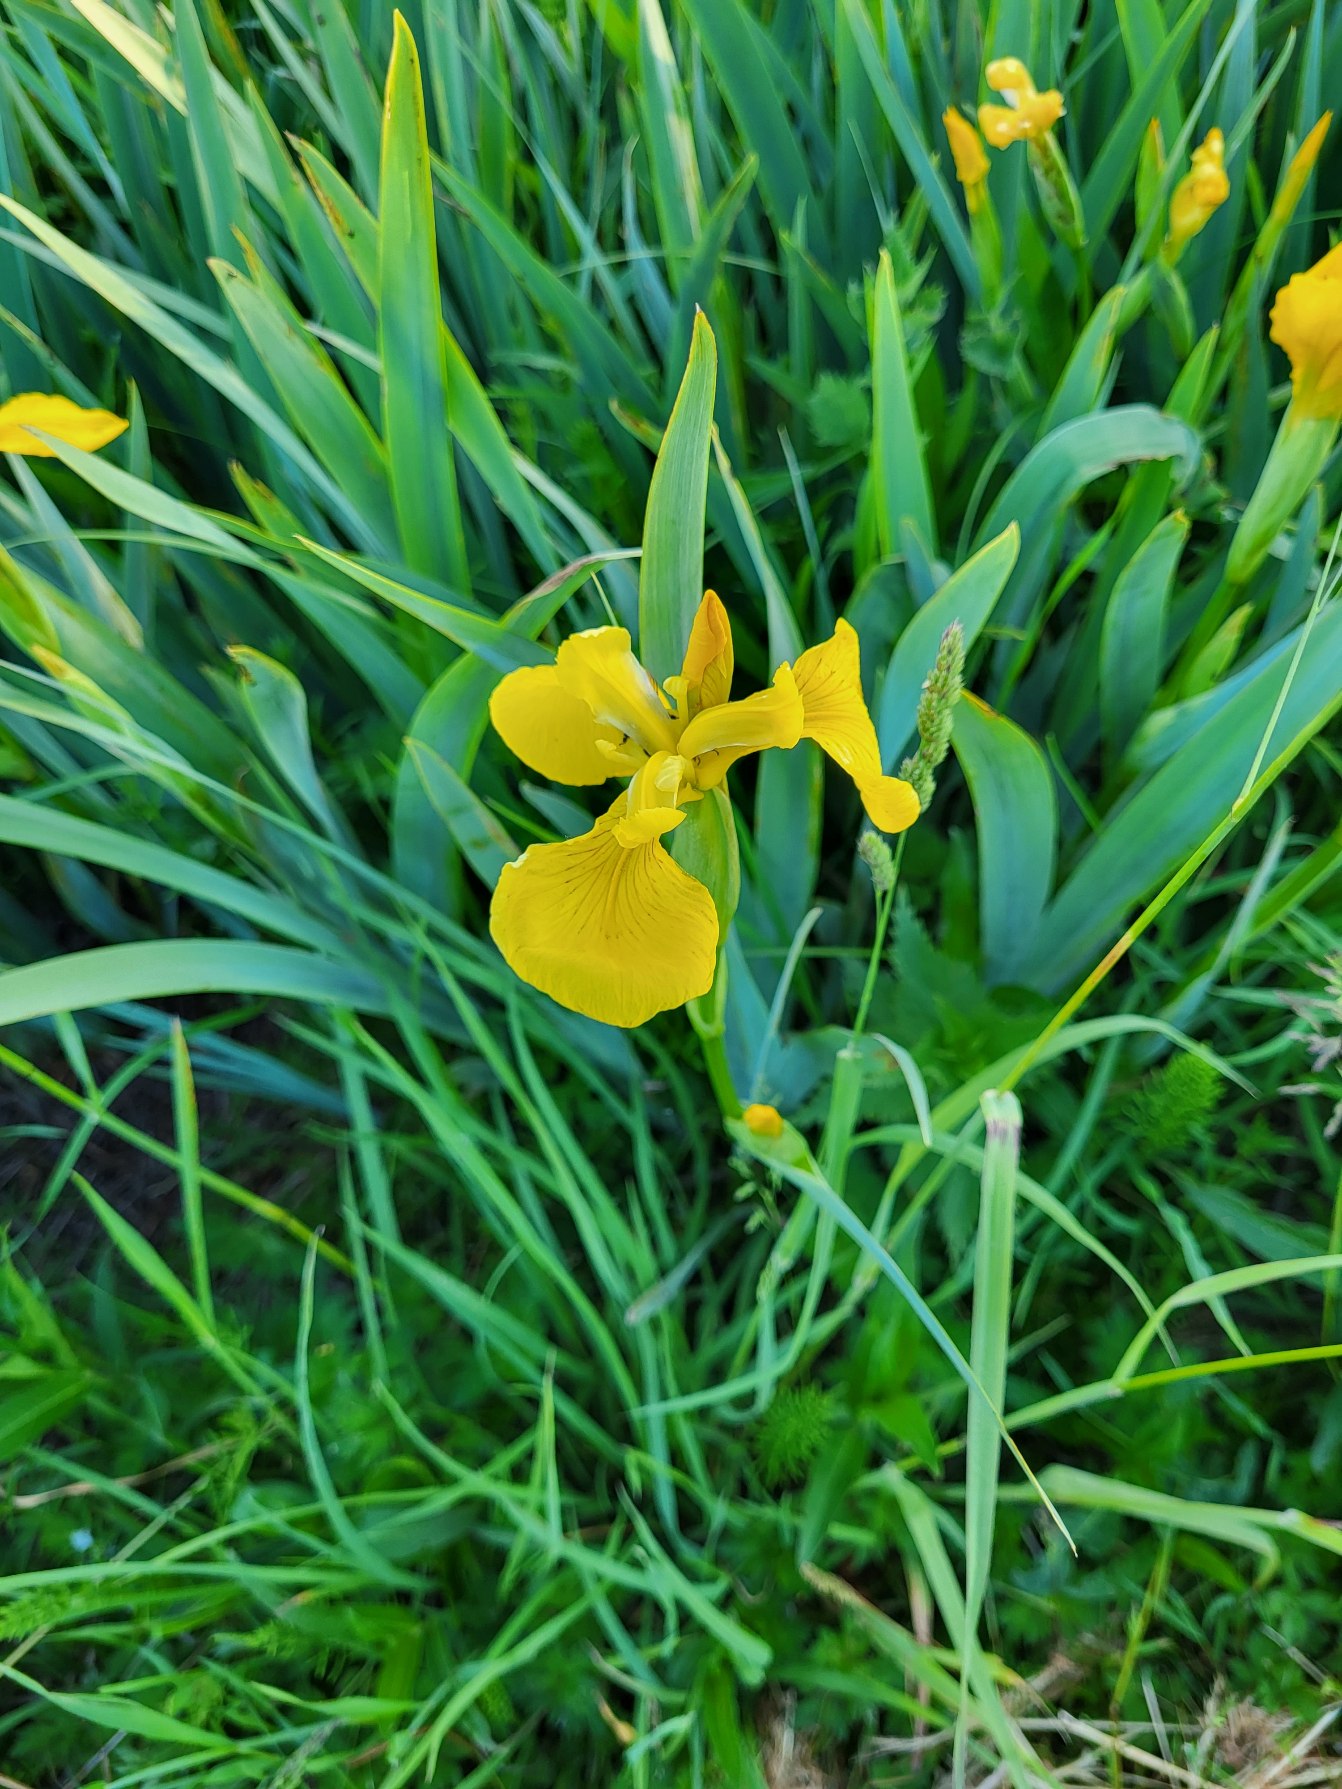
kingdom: Plantae
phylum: Tracheophyta
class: Liliopsida
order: Asparagales
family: Iridaceae
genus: Iris
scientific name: Iris pseudacorus
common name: Gul iris
